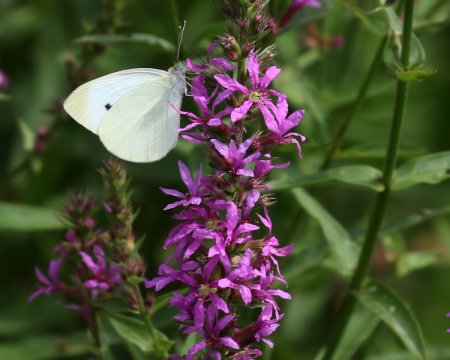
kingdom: Animalia
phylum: Arthropoda
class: Insecta
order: Lepidoptera
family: Pieridae
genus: Pieris
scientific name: Pieris rapae
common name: Cabbage White
